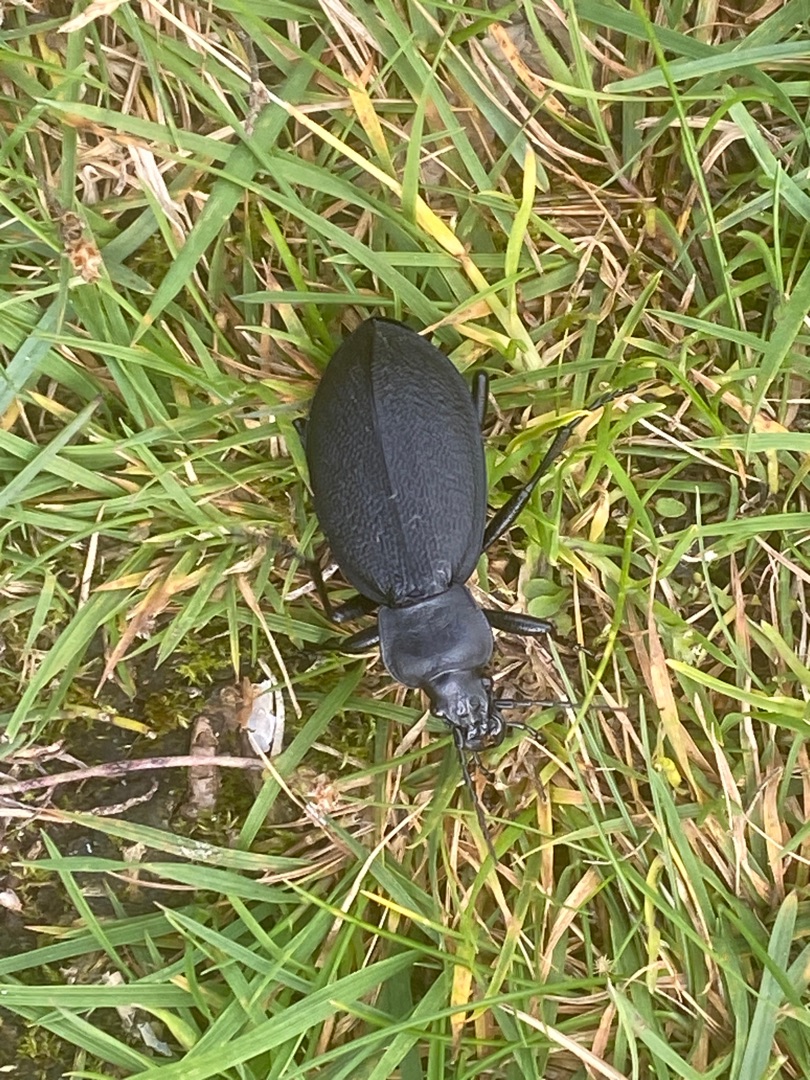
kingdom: Animalia
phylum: Arthropoda
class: Insecta
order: Coleoptera
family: Carabidae
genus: Carabus
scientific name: Carabus coriaceus
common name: Læderløber
